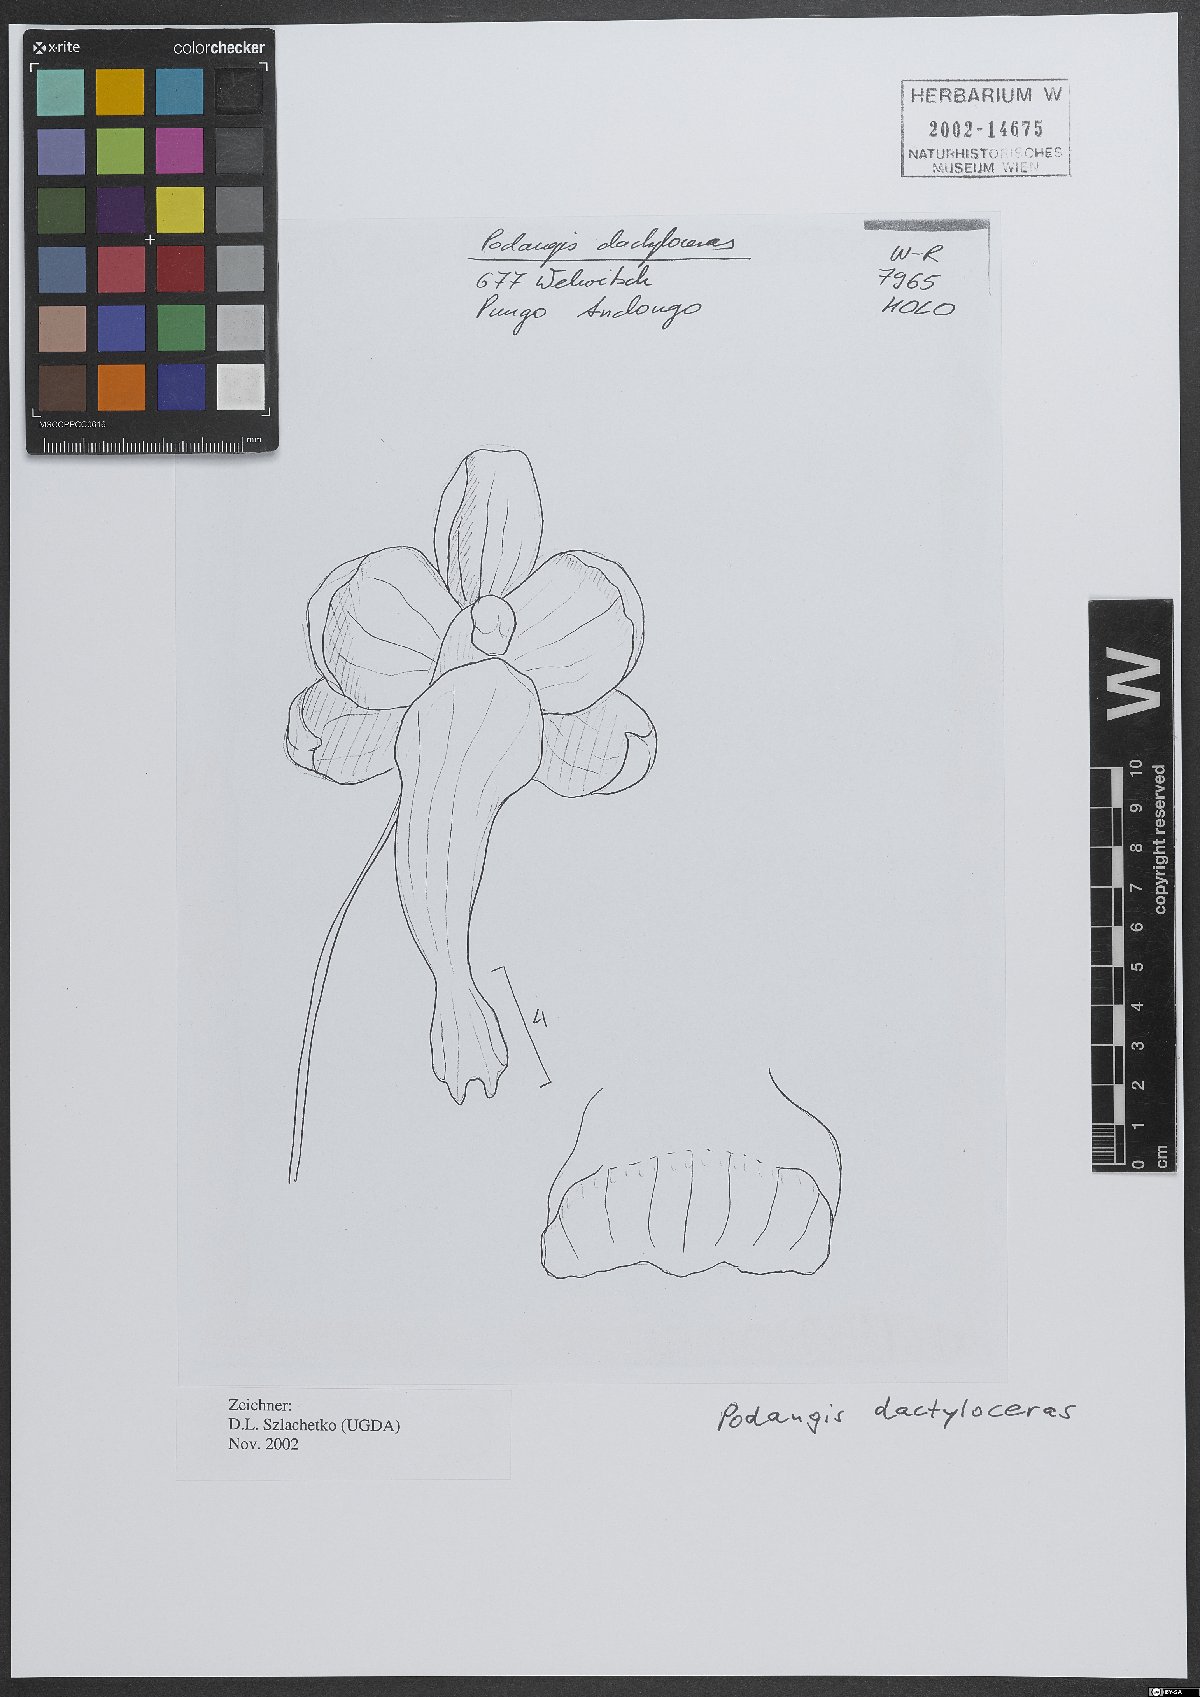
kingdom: Plantae
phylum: Tracheophyta
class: Liliopsida
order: Asparagales
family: Orchidaceae
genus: Podangis
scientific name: Podangis dactyloceras
